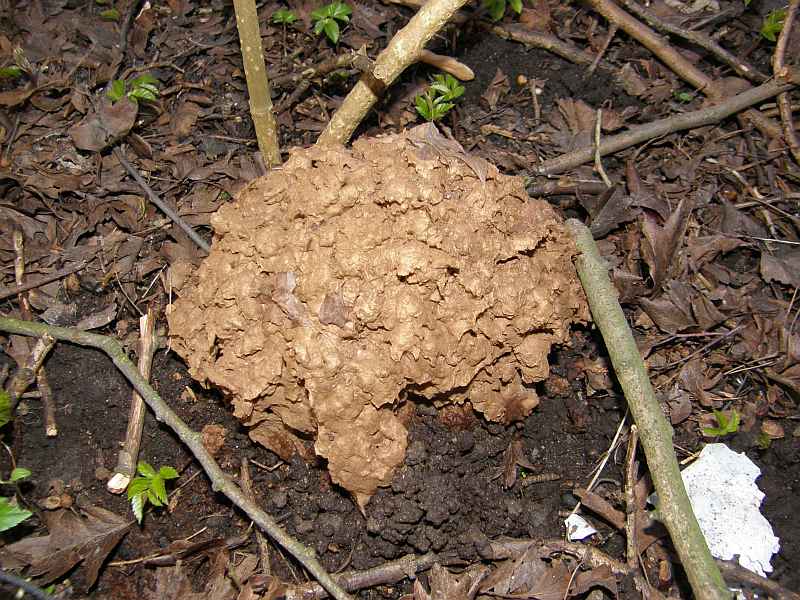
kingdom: Fungi
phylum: Basidiomycota
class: Agaricomycetes
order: Agaricales
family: Lycoperdaceae
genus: Calvatia
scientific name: Calvatia gigantea
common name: kæmpestøvbold
